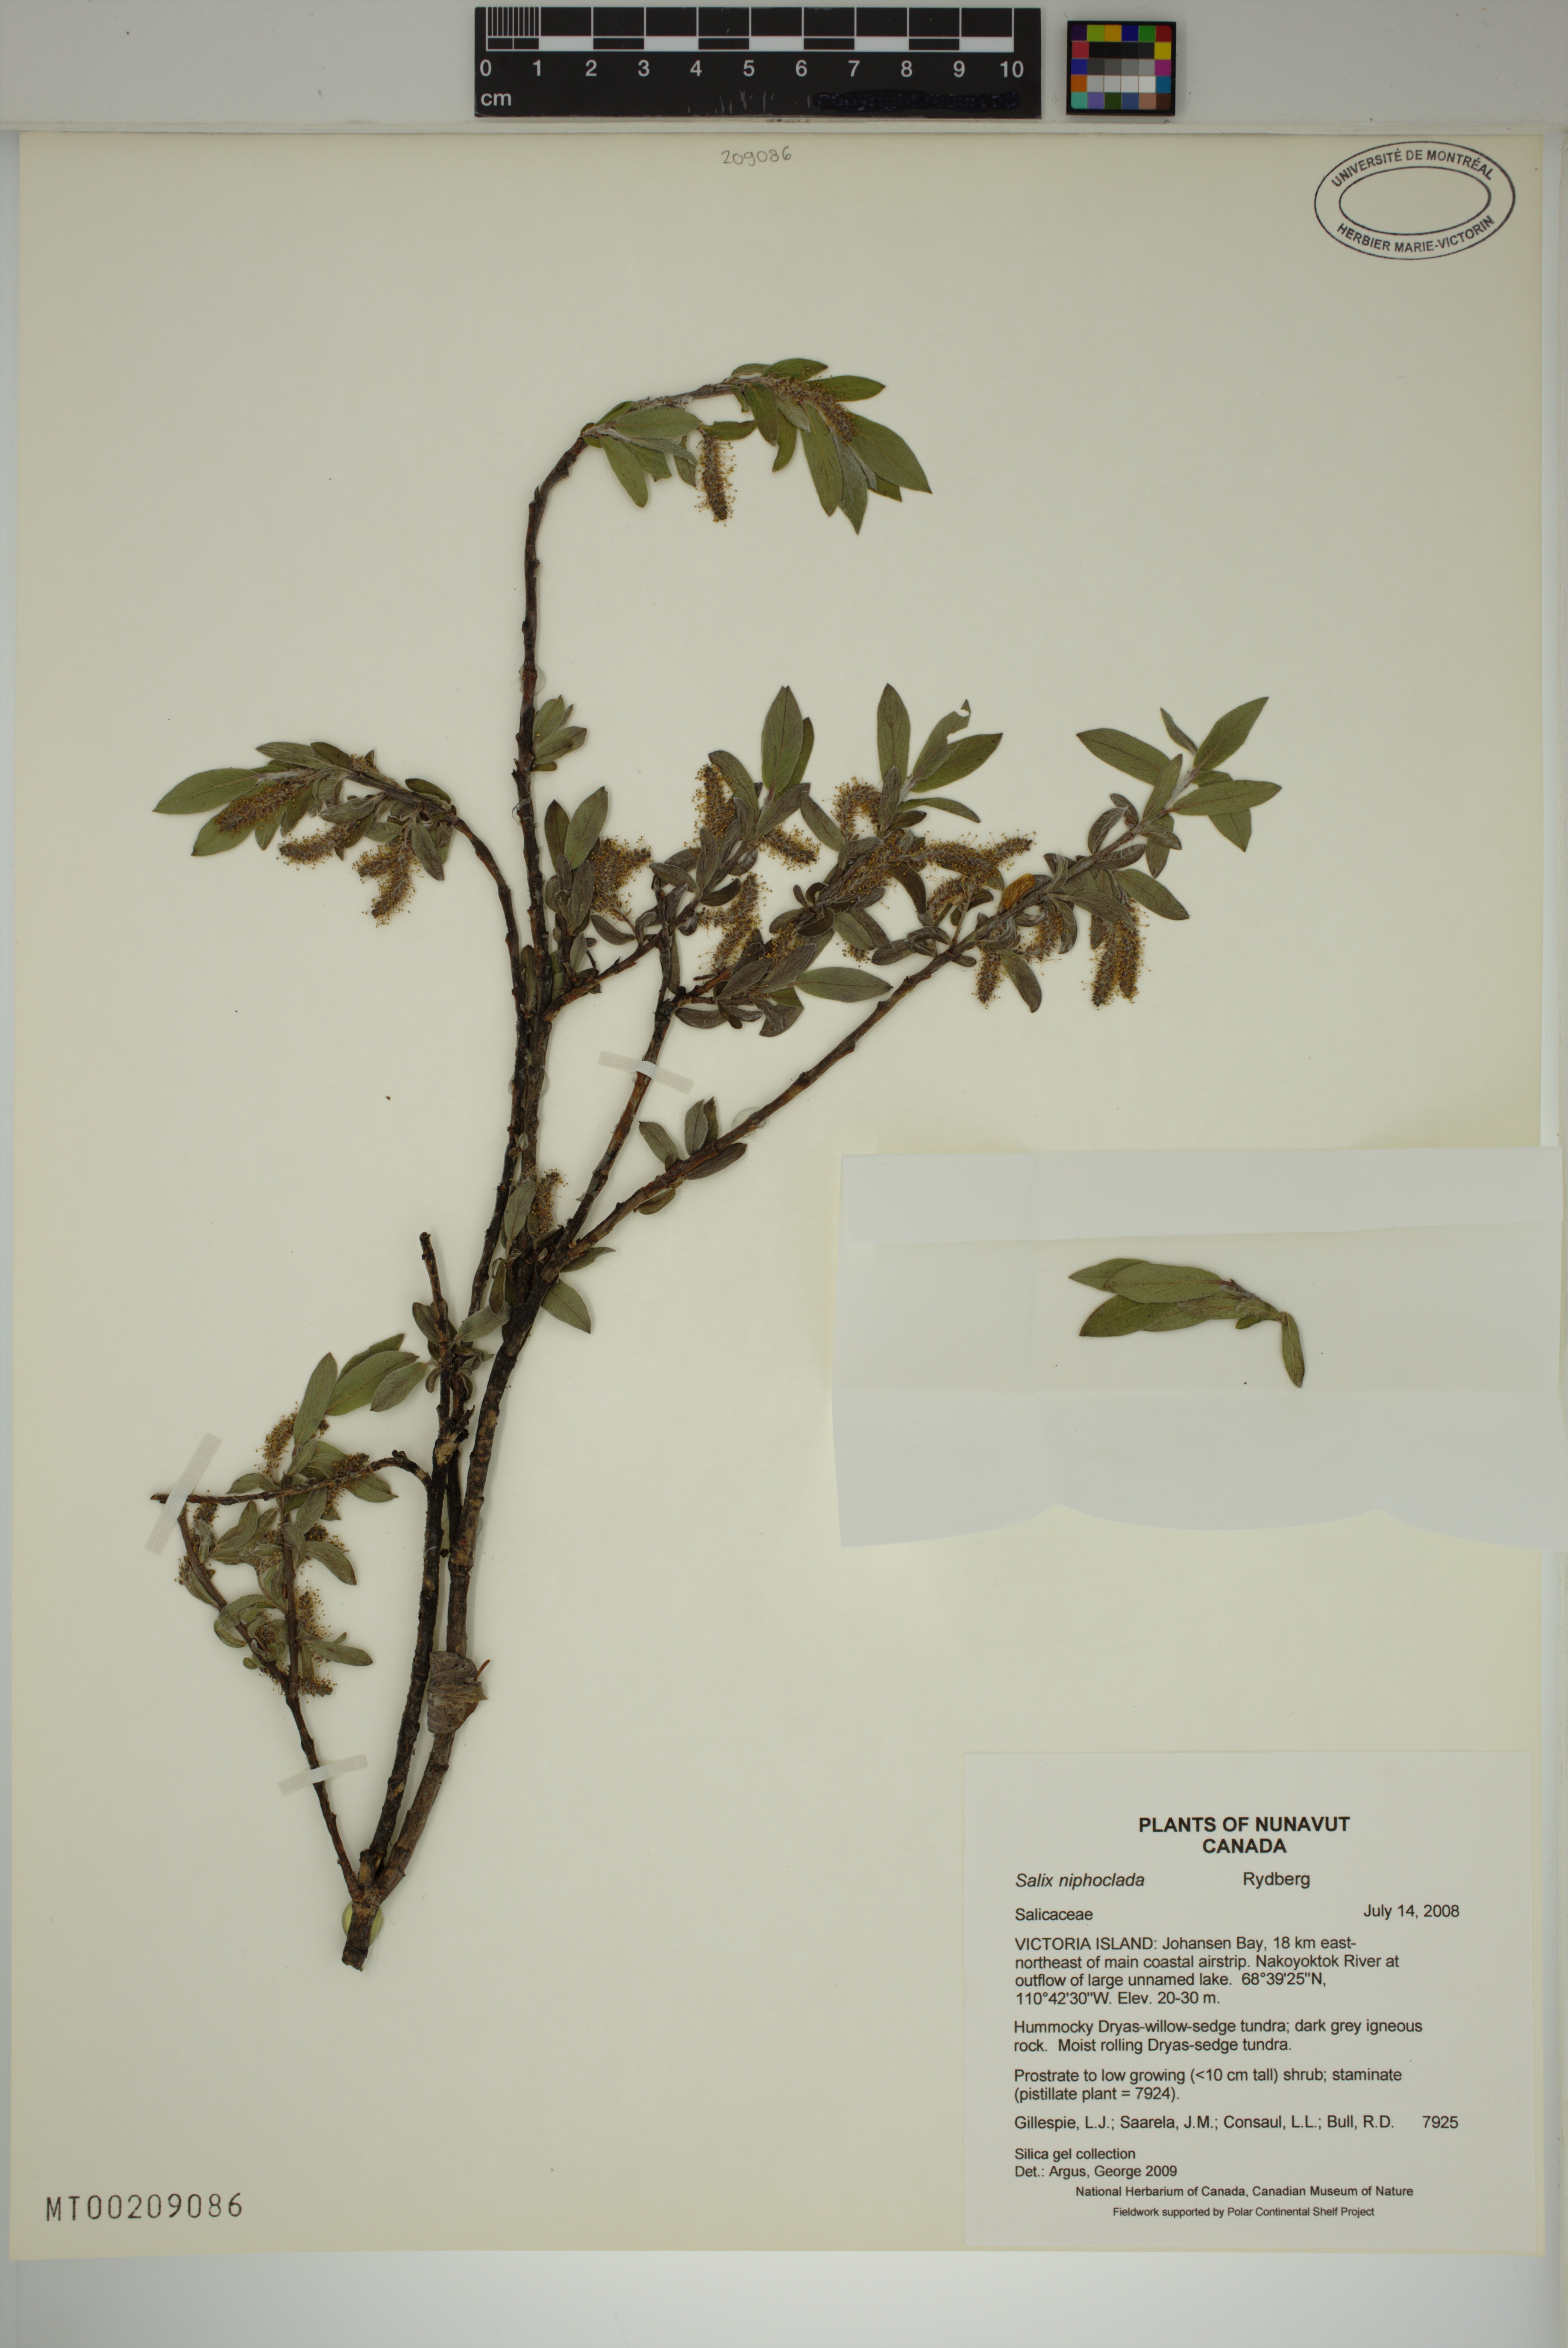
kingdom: Plantae
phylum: Tracheophyta
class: Magnoliopsida
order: Malpighiales
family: Salicaceae
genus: Salix
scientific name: Salix niphoclada
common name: Barren-ground willow
